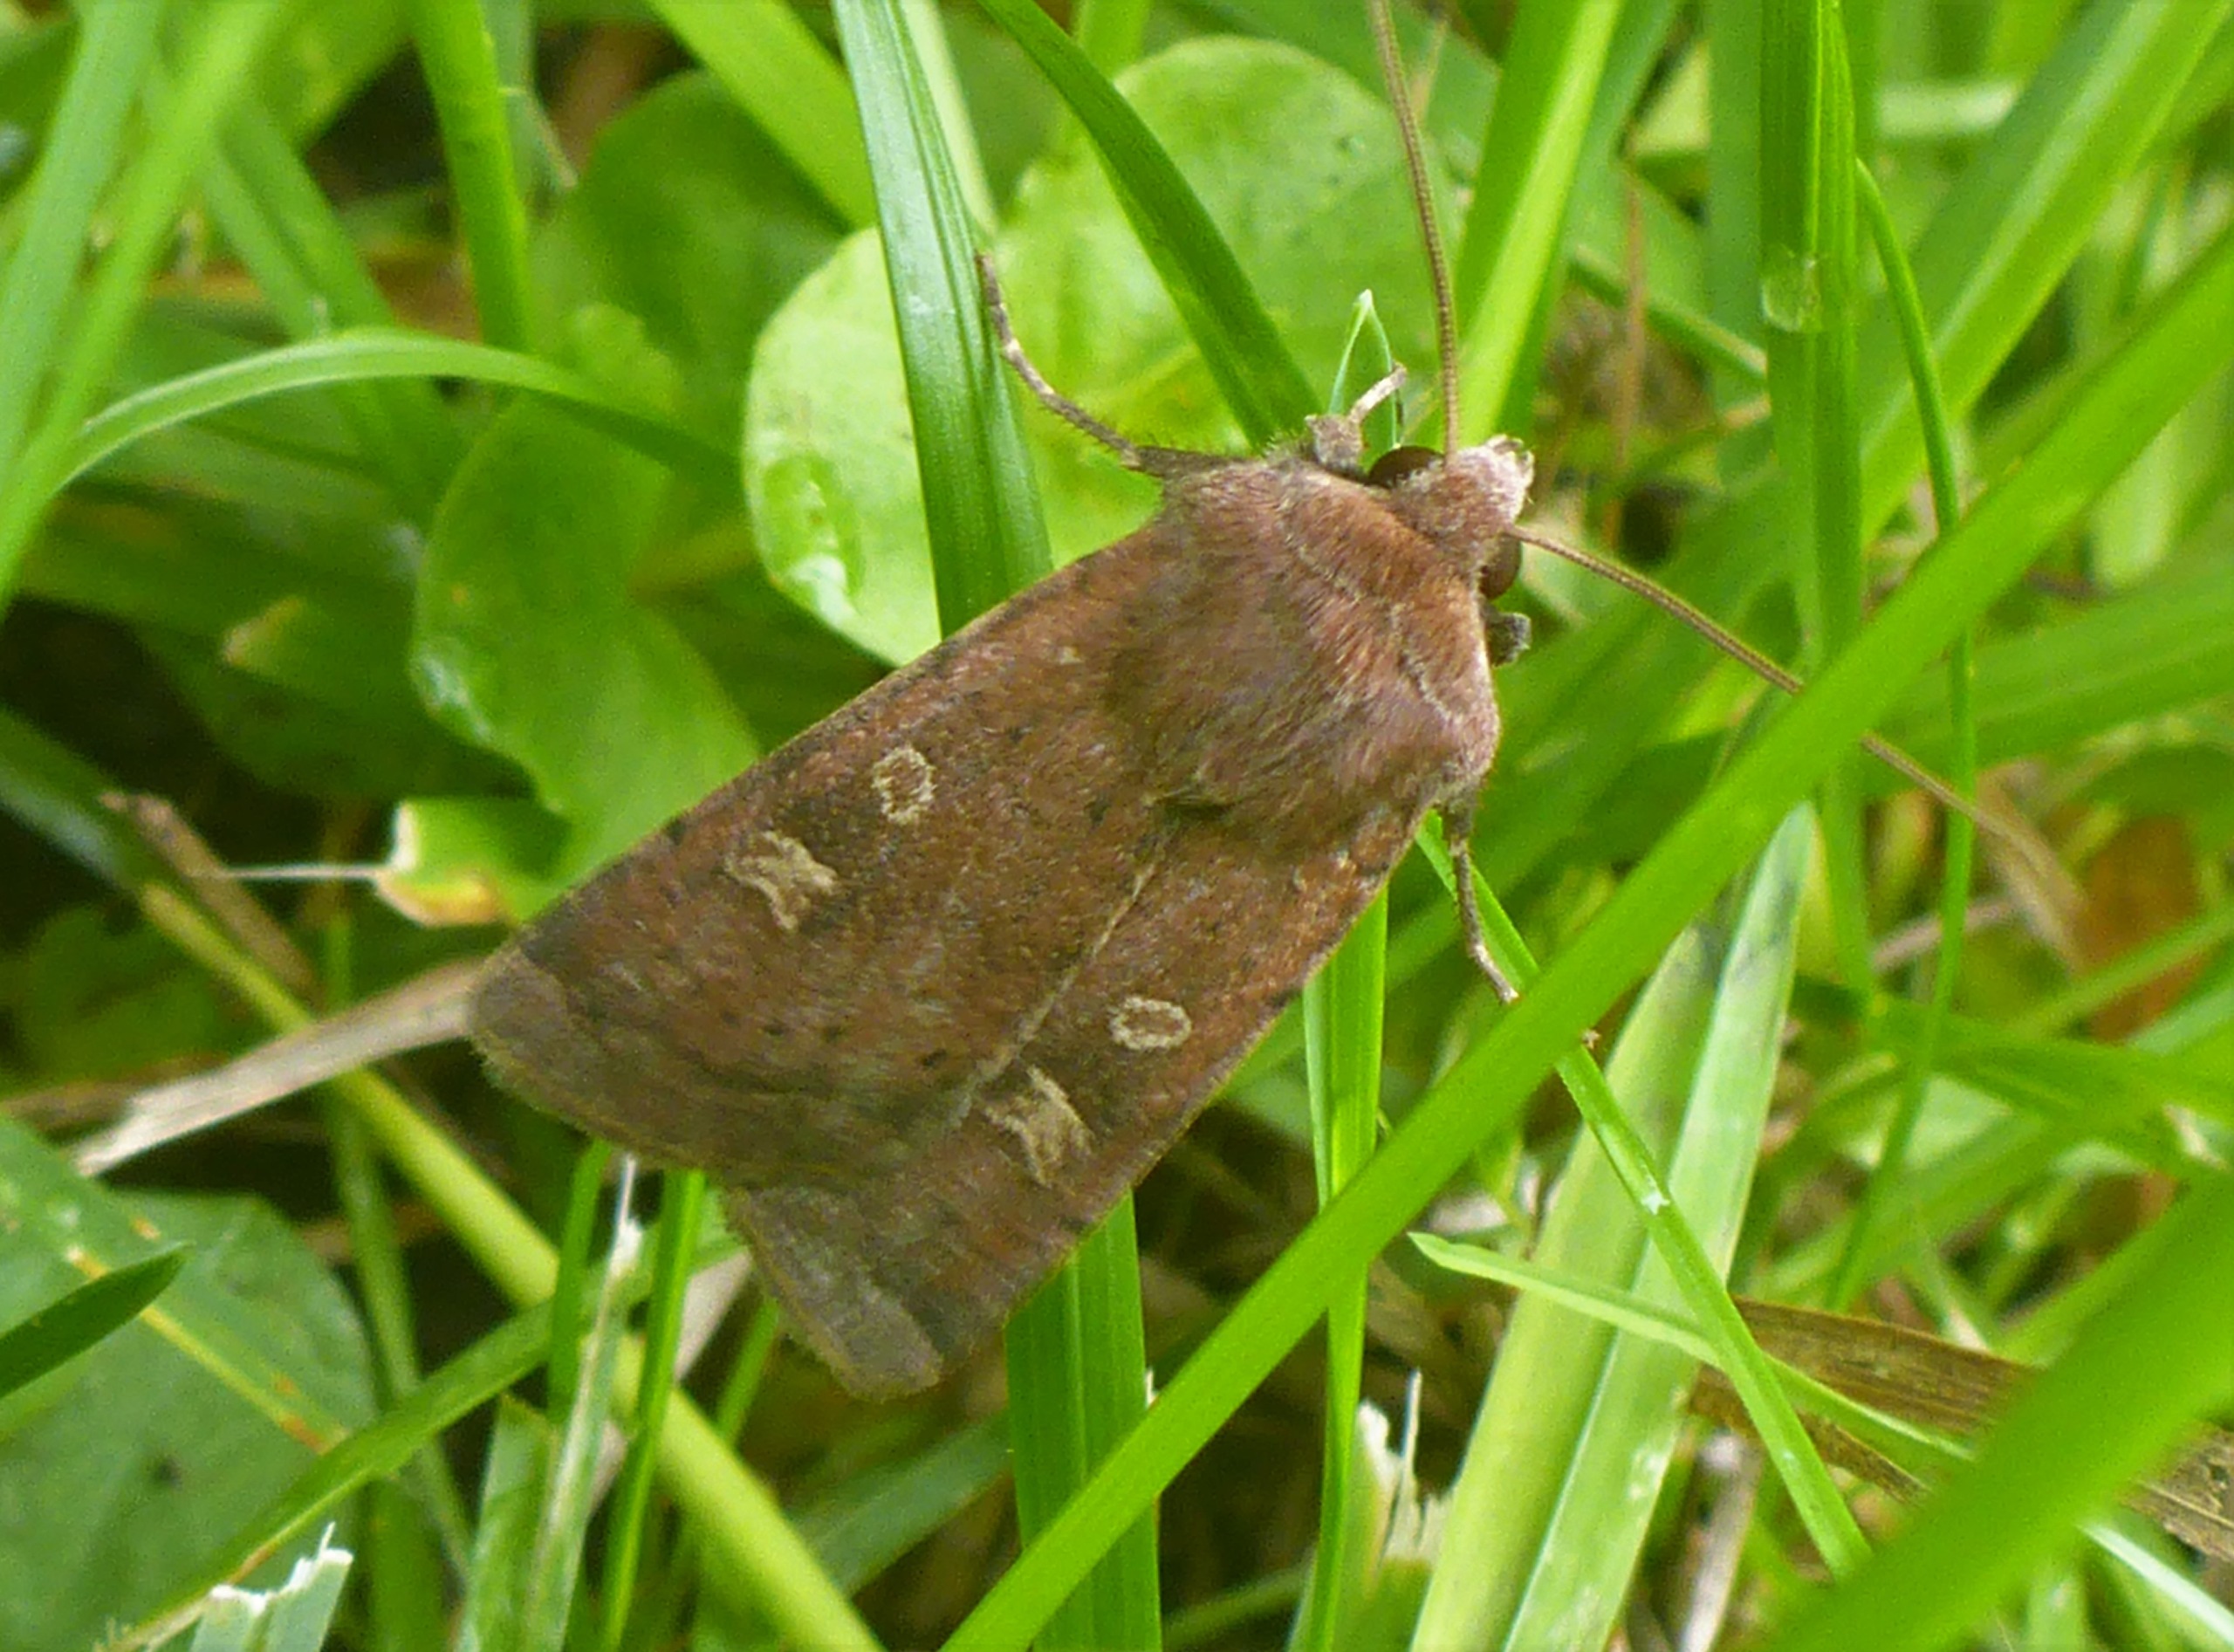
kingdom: Animalia
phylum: Arthropoda
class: Insecta
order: Lepidoptera
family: Noctuidae
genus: Xestia
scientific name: Xestia xanthographa
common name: Gulmærket glansugle
